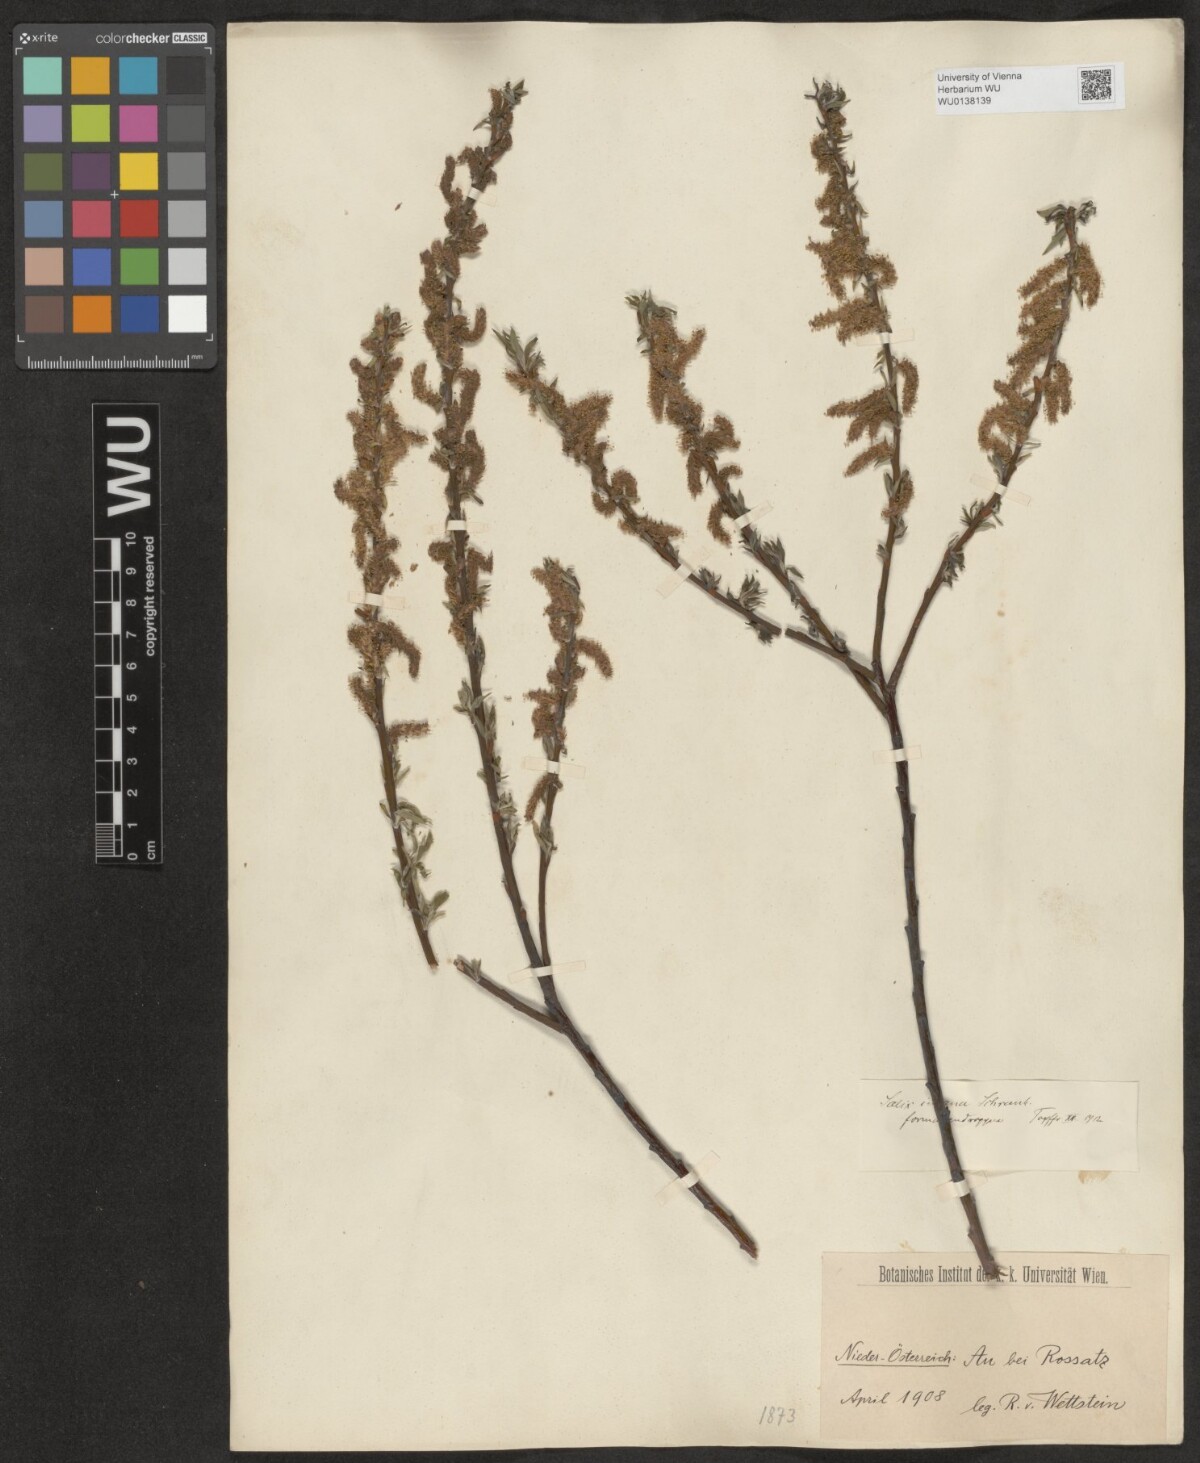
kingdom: Plantae
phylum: Tracheophyta
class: Magnoliopsida
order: Malpighiales
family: Salicaceae
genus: Salix
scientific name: Salix eleagnos
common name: Elaeagnus willow
